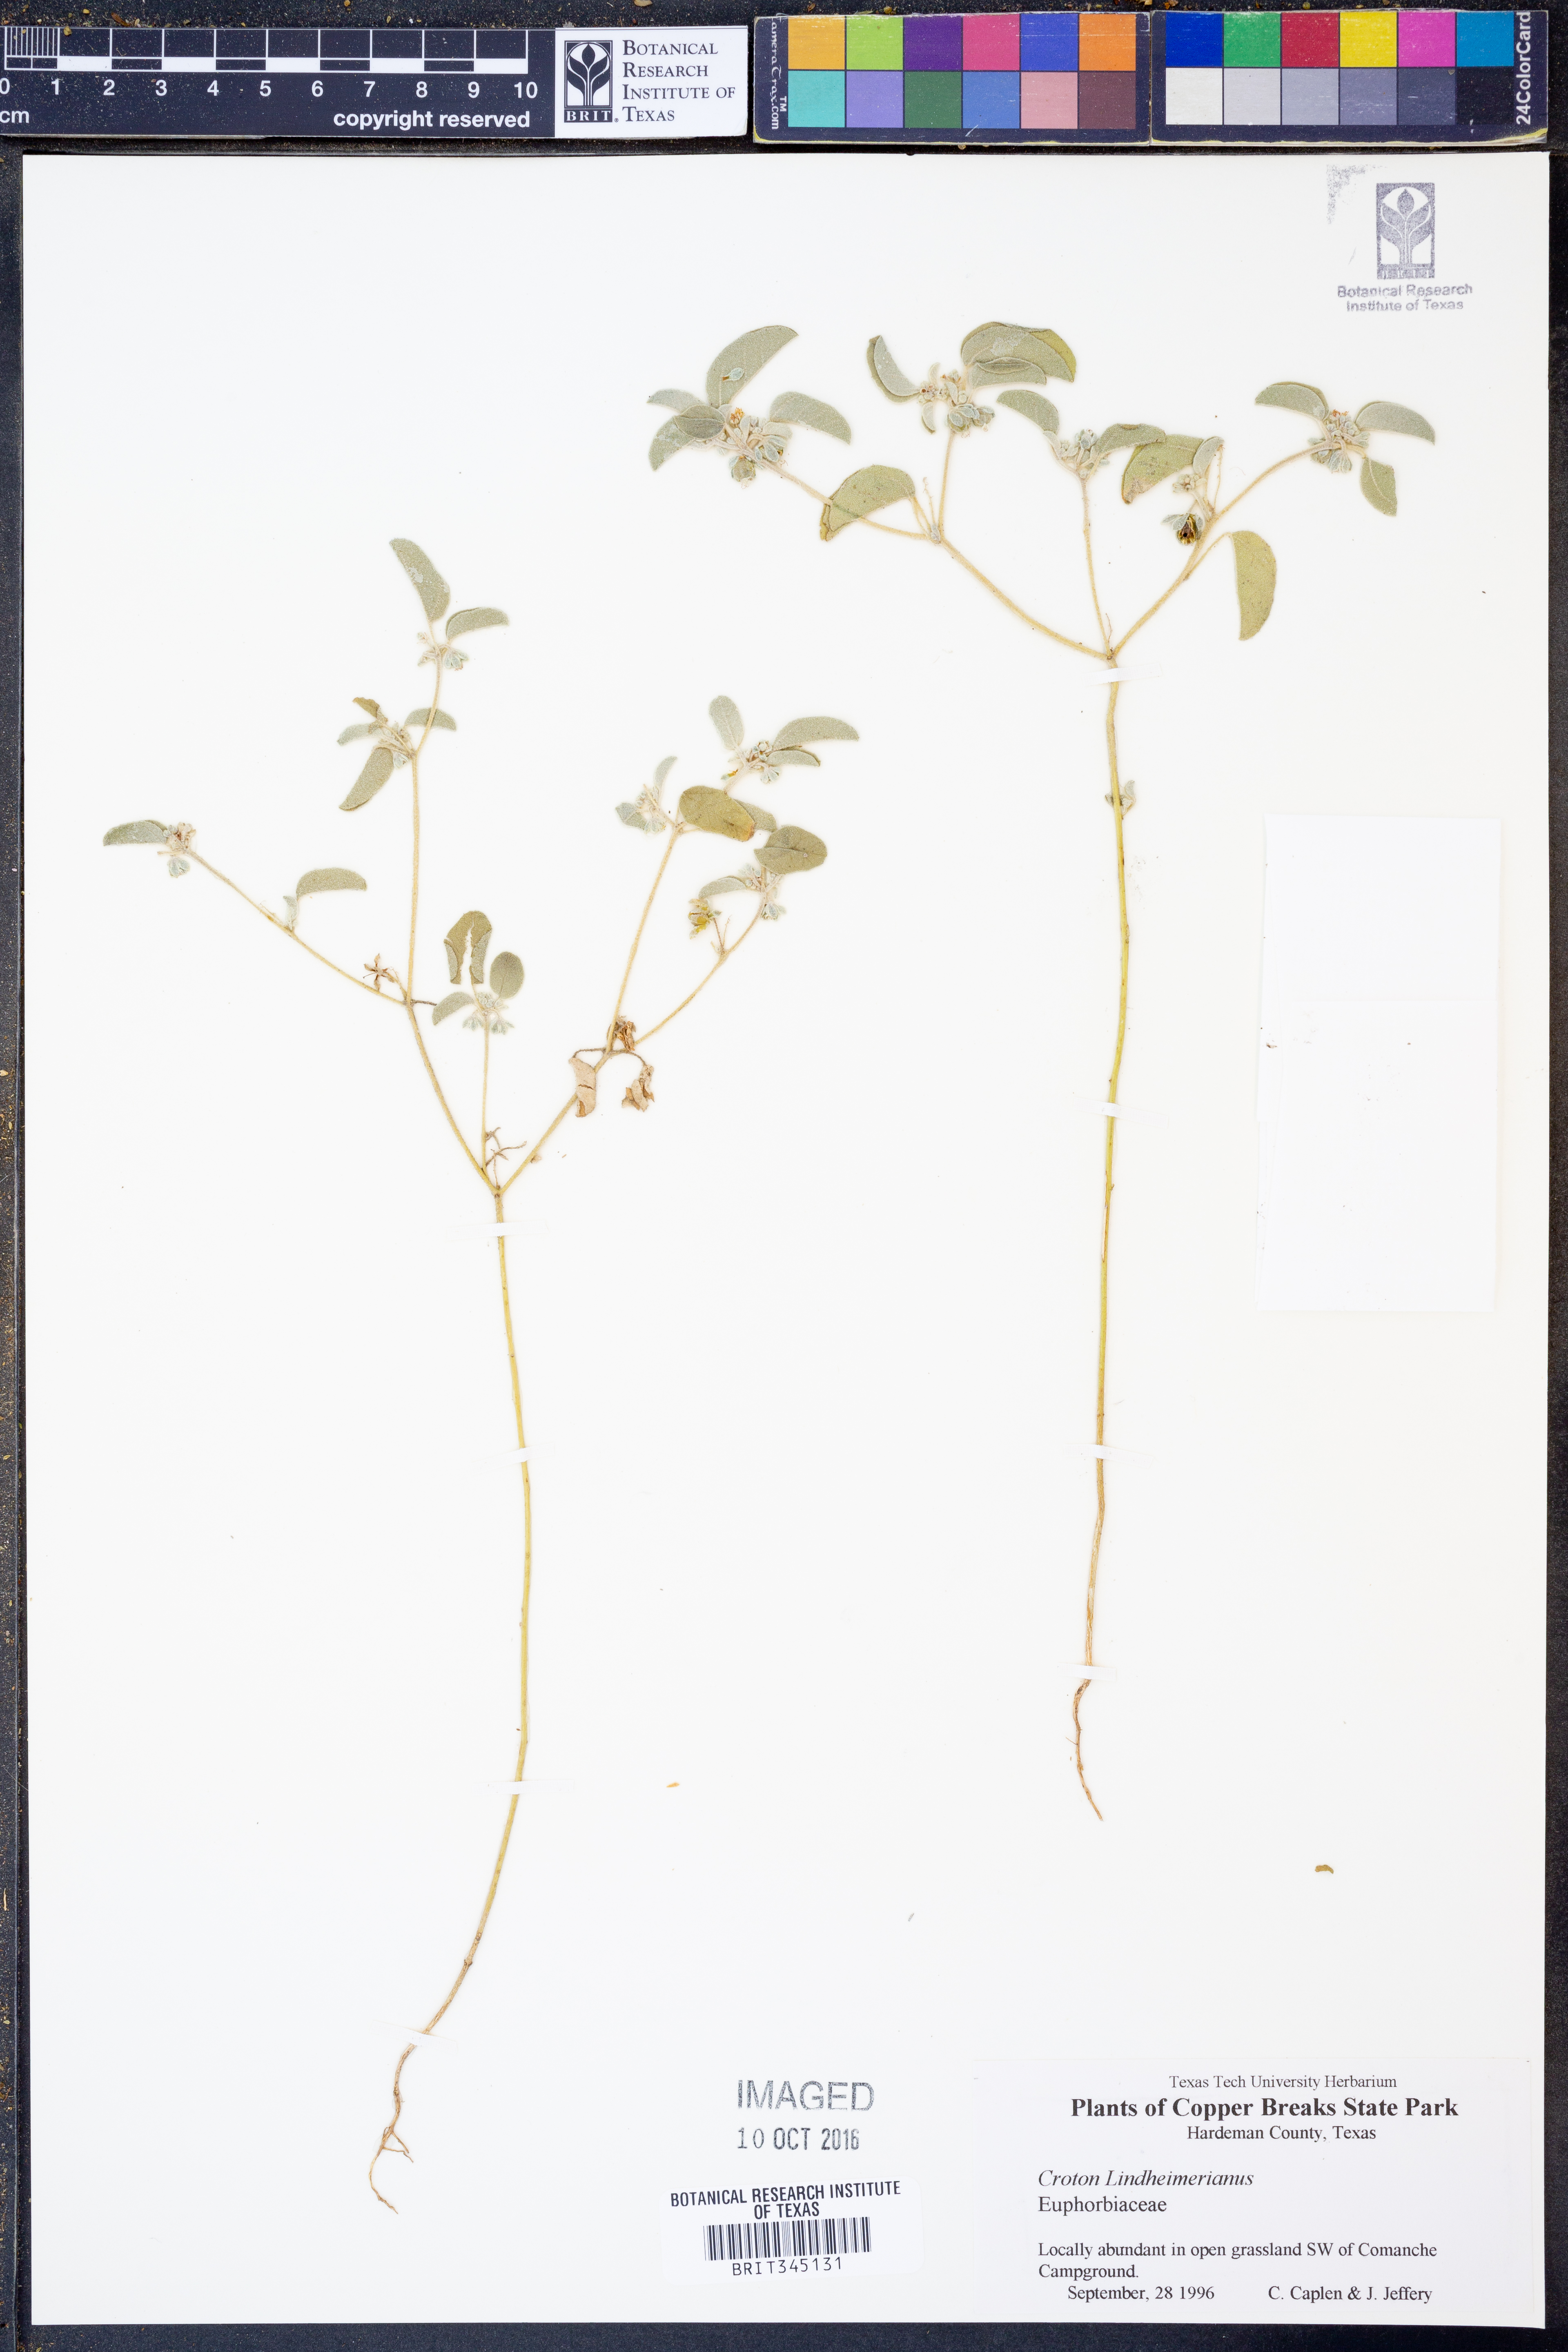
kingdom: Plantae
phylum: Tracheophyta
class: Magnoliopsida
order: Malpighiales
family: Euphorbiaceae
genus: Croton
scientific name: Croton lindheimerianus
